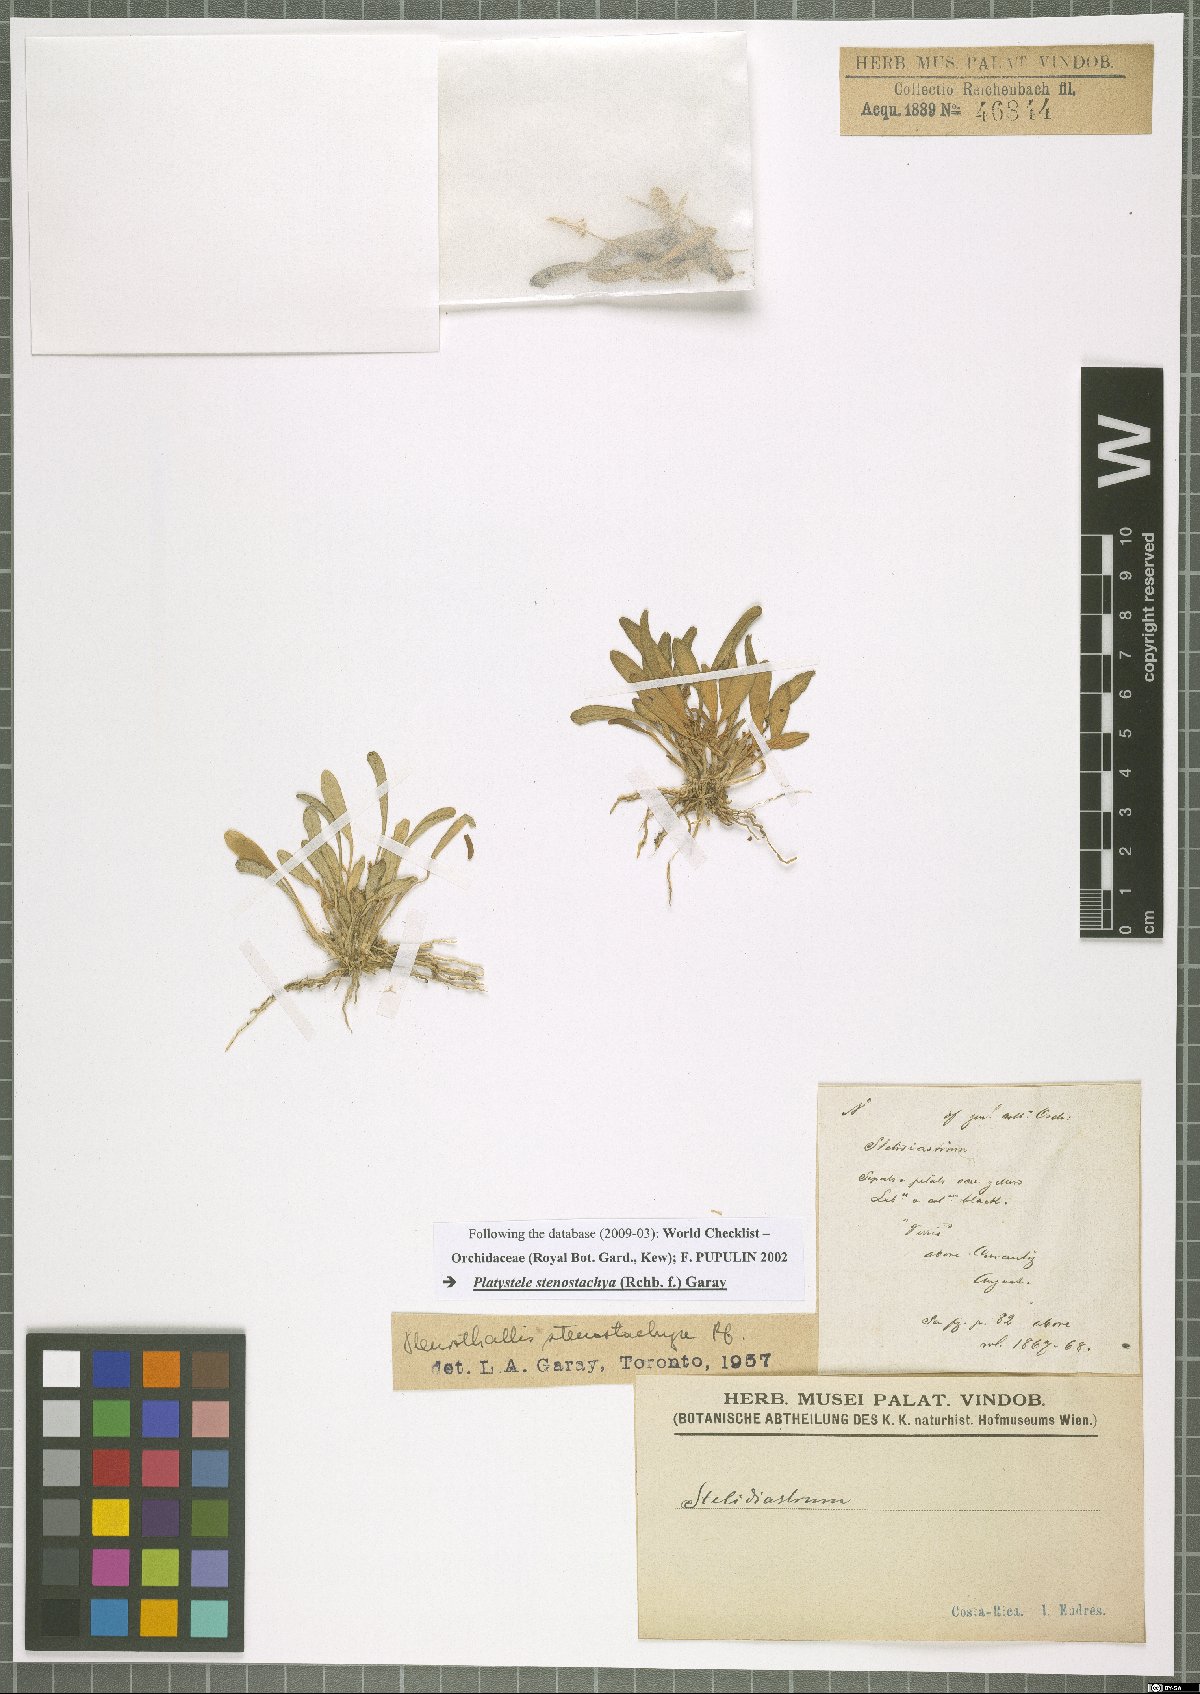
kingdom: Plantae
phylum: Tracheophyta
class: Liliopsida
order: Asparagales
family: Orchidaceae
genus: Platystele
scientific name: Platystele stenostachya
